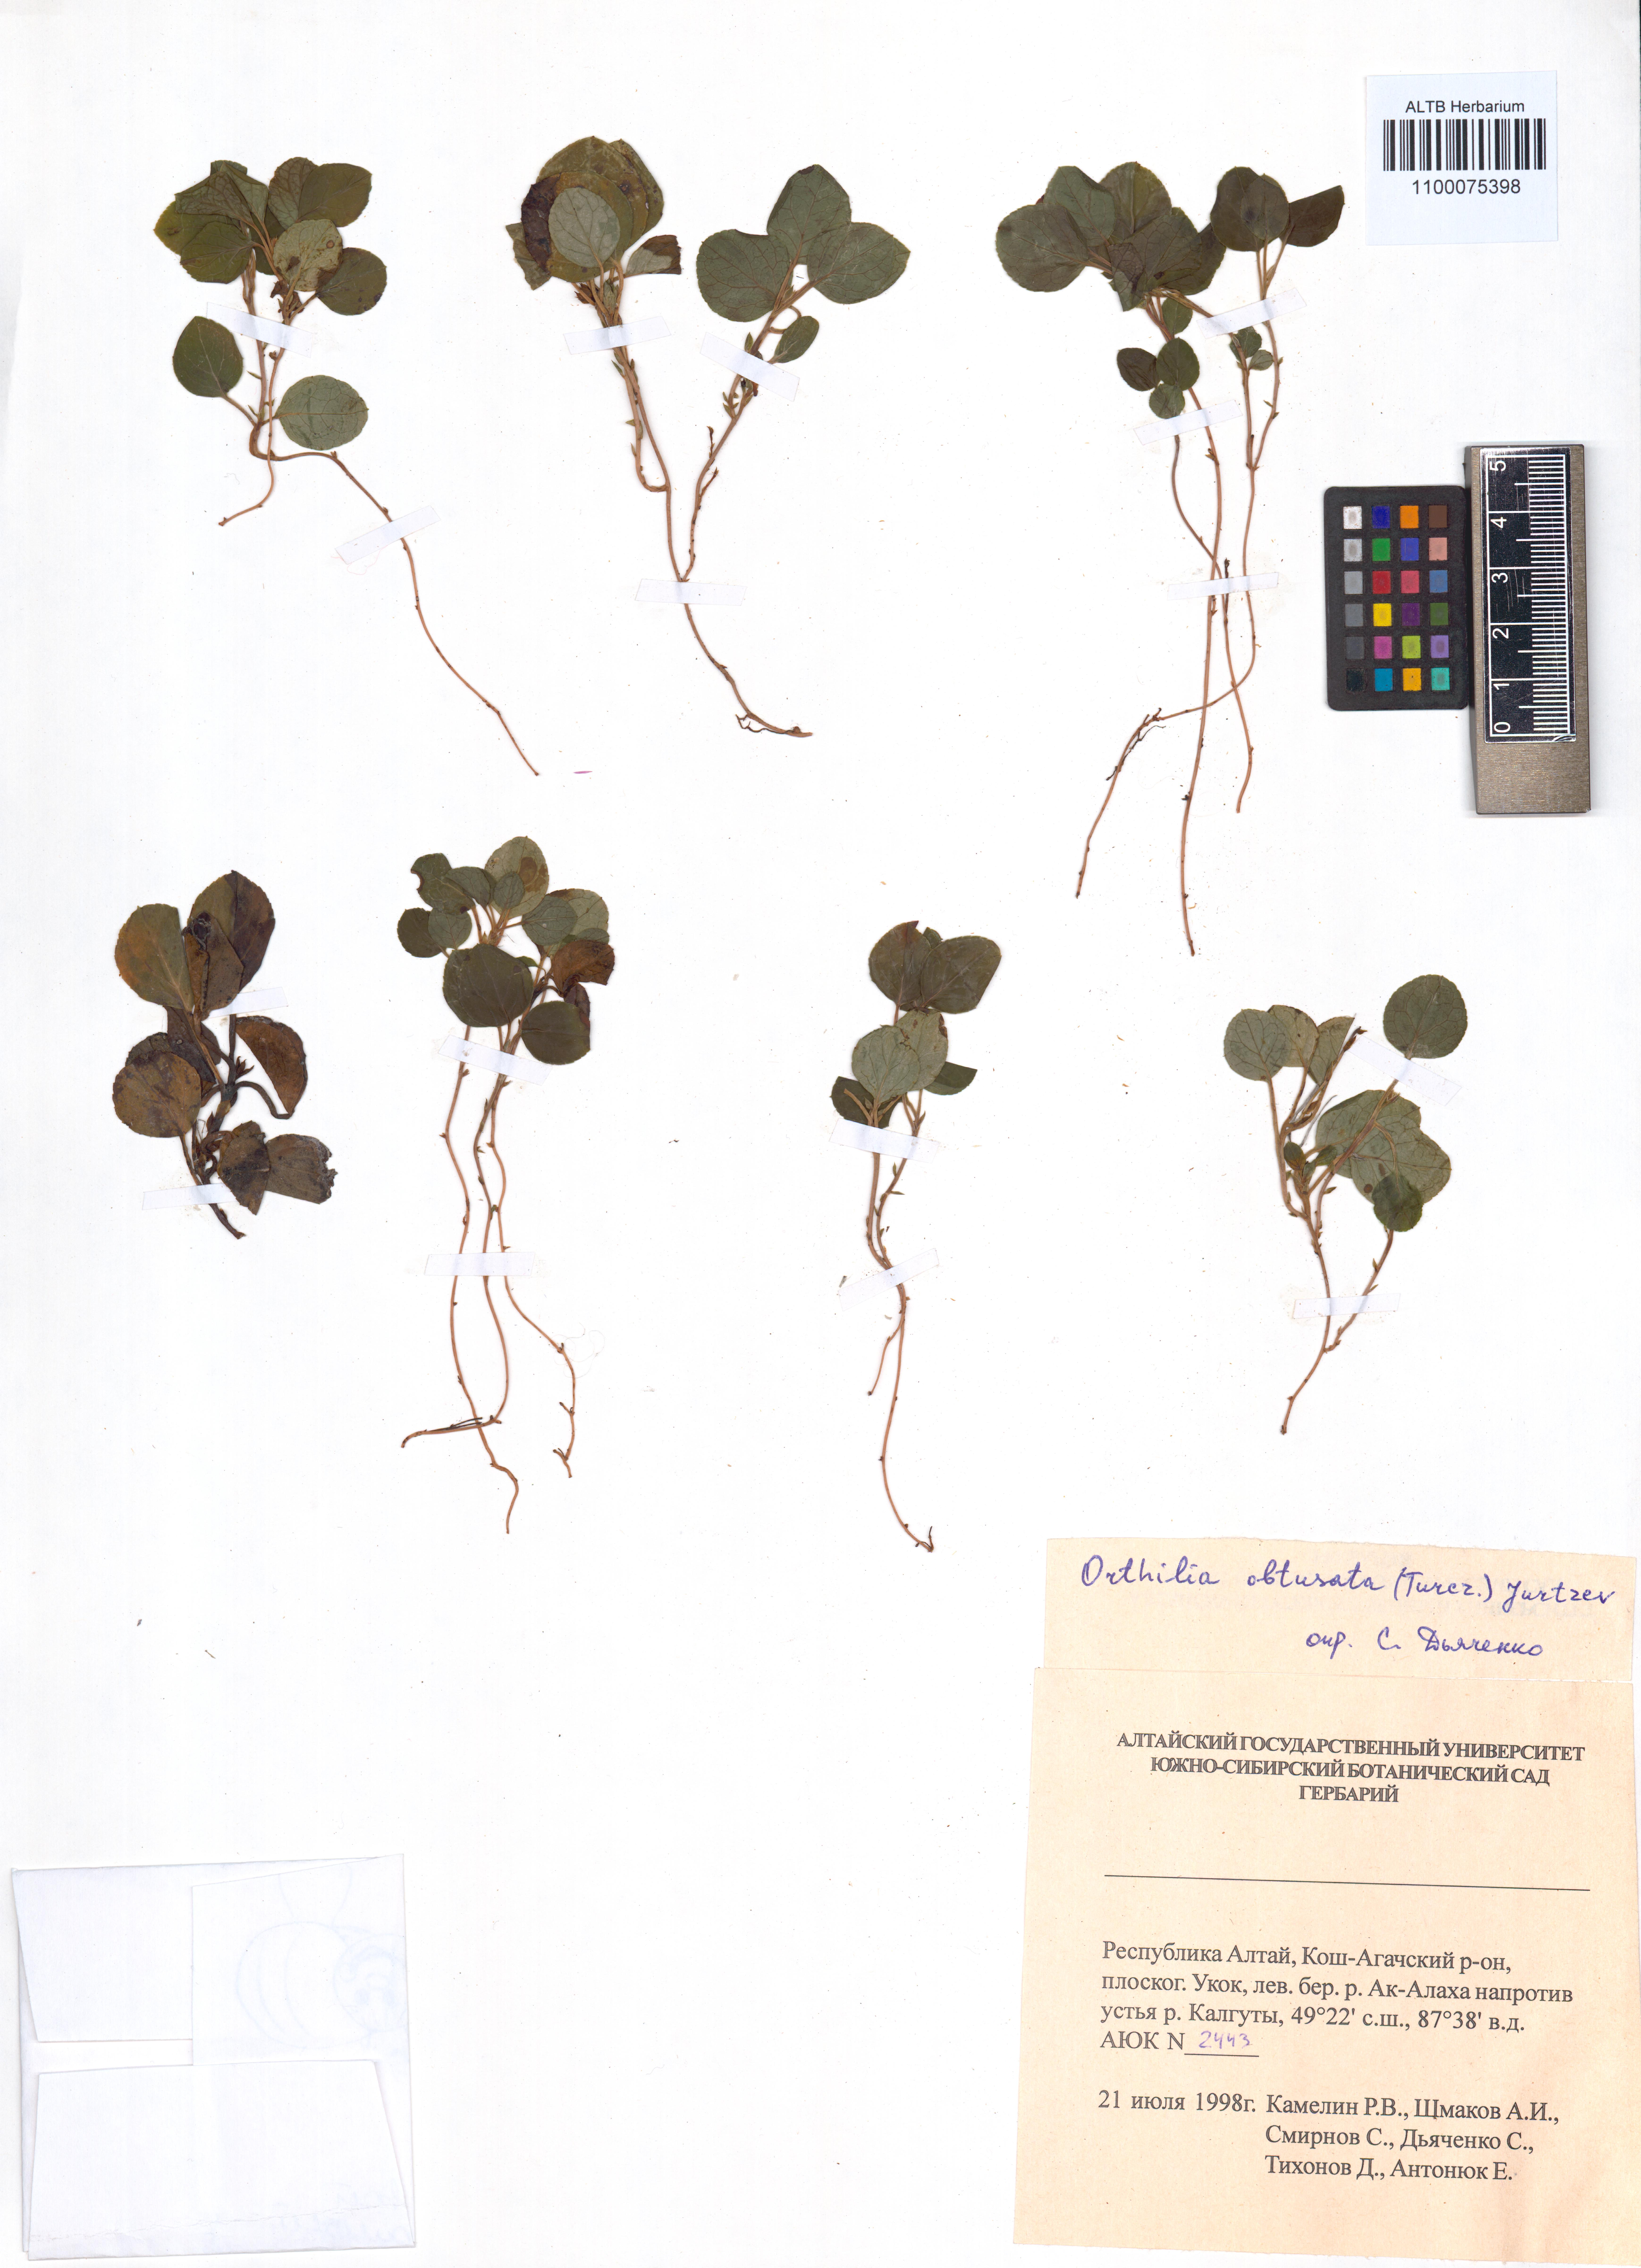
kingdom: Plantae
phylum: Tracheophyta
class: Magnoliopsida
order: Ericales
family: Ericaceae
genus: Orthilia
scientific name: Orthilia secunda
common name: One-sided orthilia
